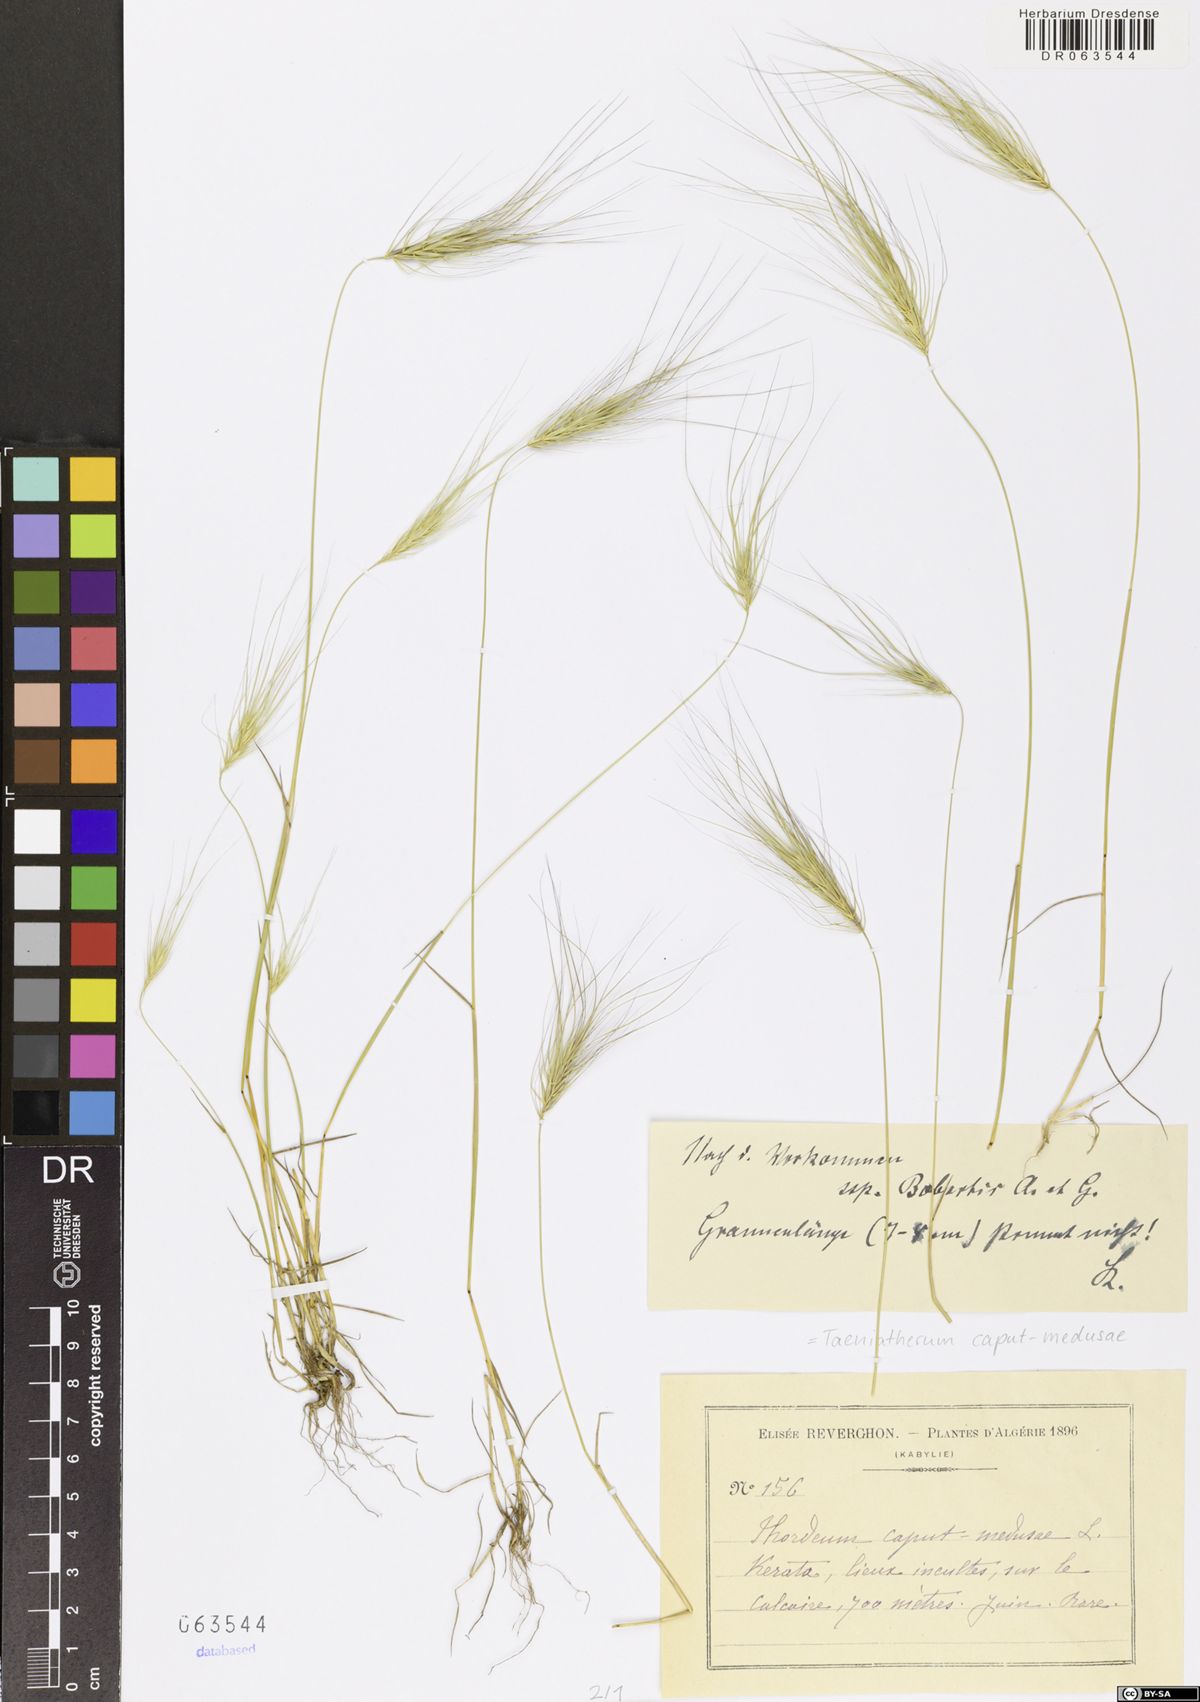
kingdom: Plantae
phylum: Tracheophyta
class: Liliopsida
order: Poales
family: Poaceae
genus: Taeniatherum
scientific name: Taeniatherum caput-medusae
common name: Medusahead
